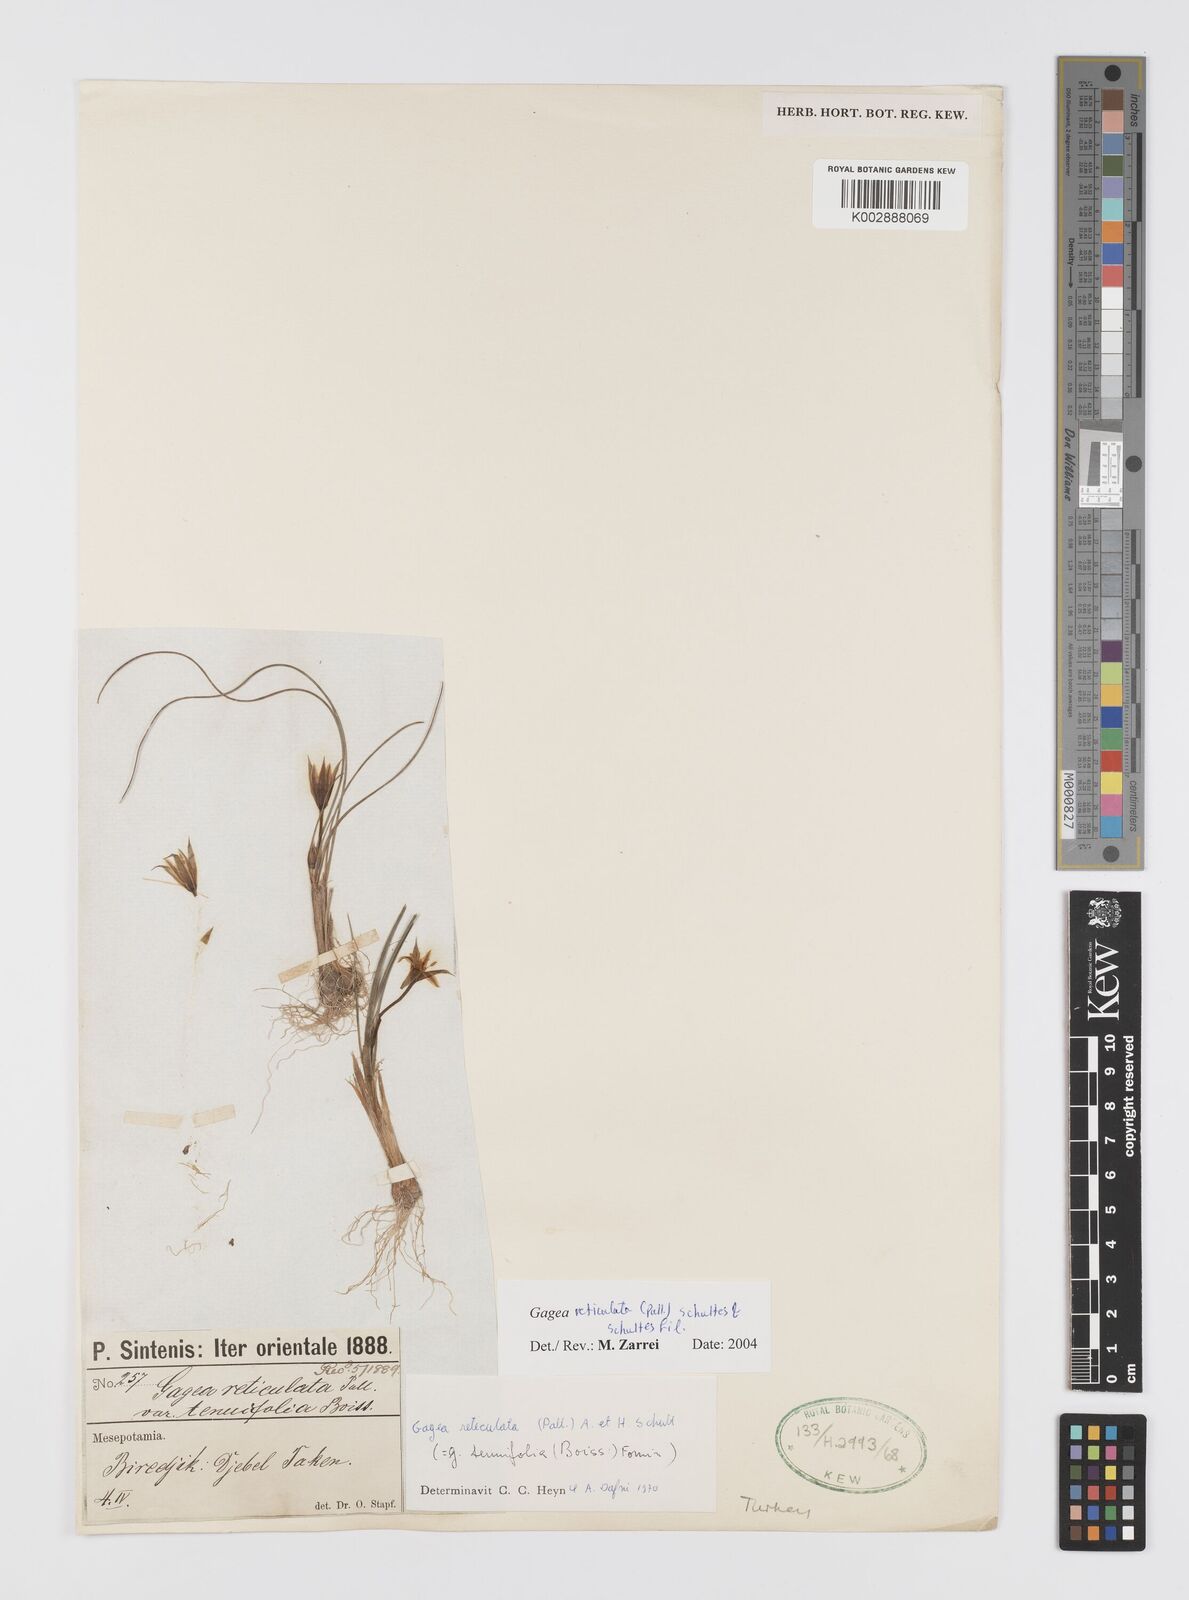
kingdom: Plantae
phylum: Tracheophyta
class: Liliopsida
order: Liliales
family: Liliaceae
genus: Gagea
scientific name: Gagea reticulata
